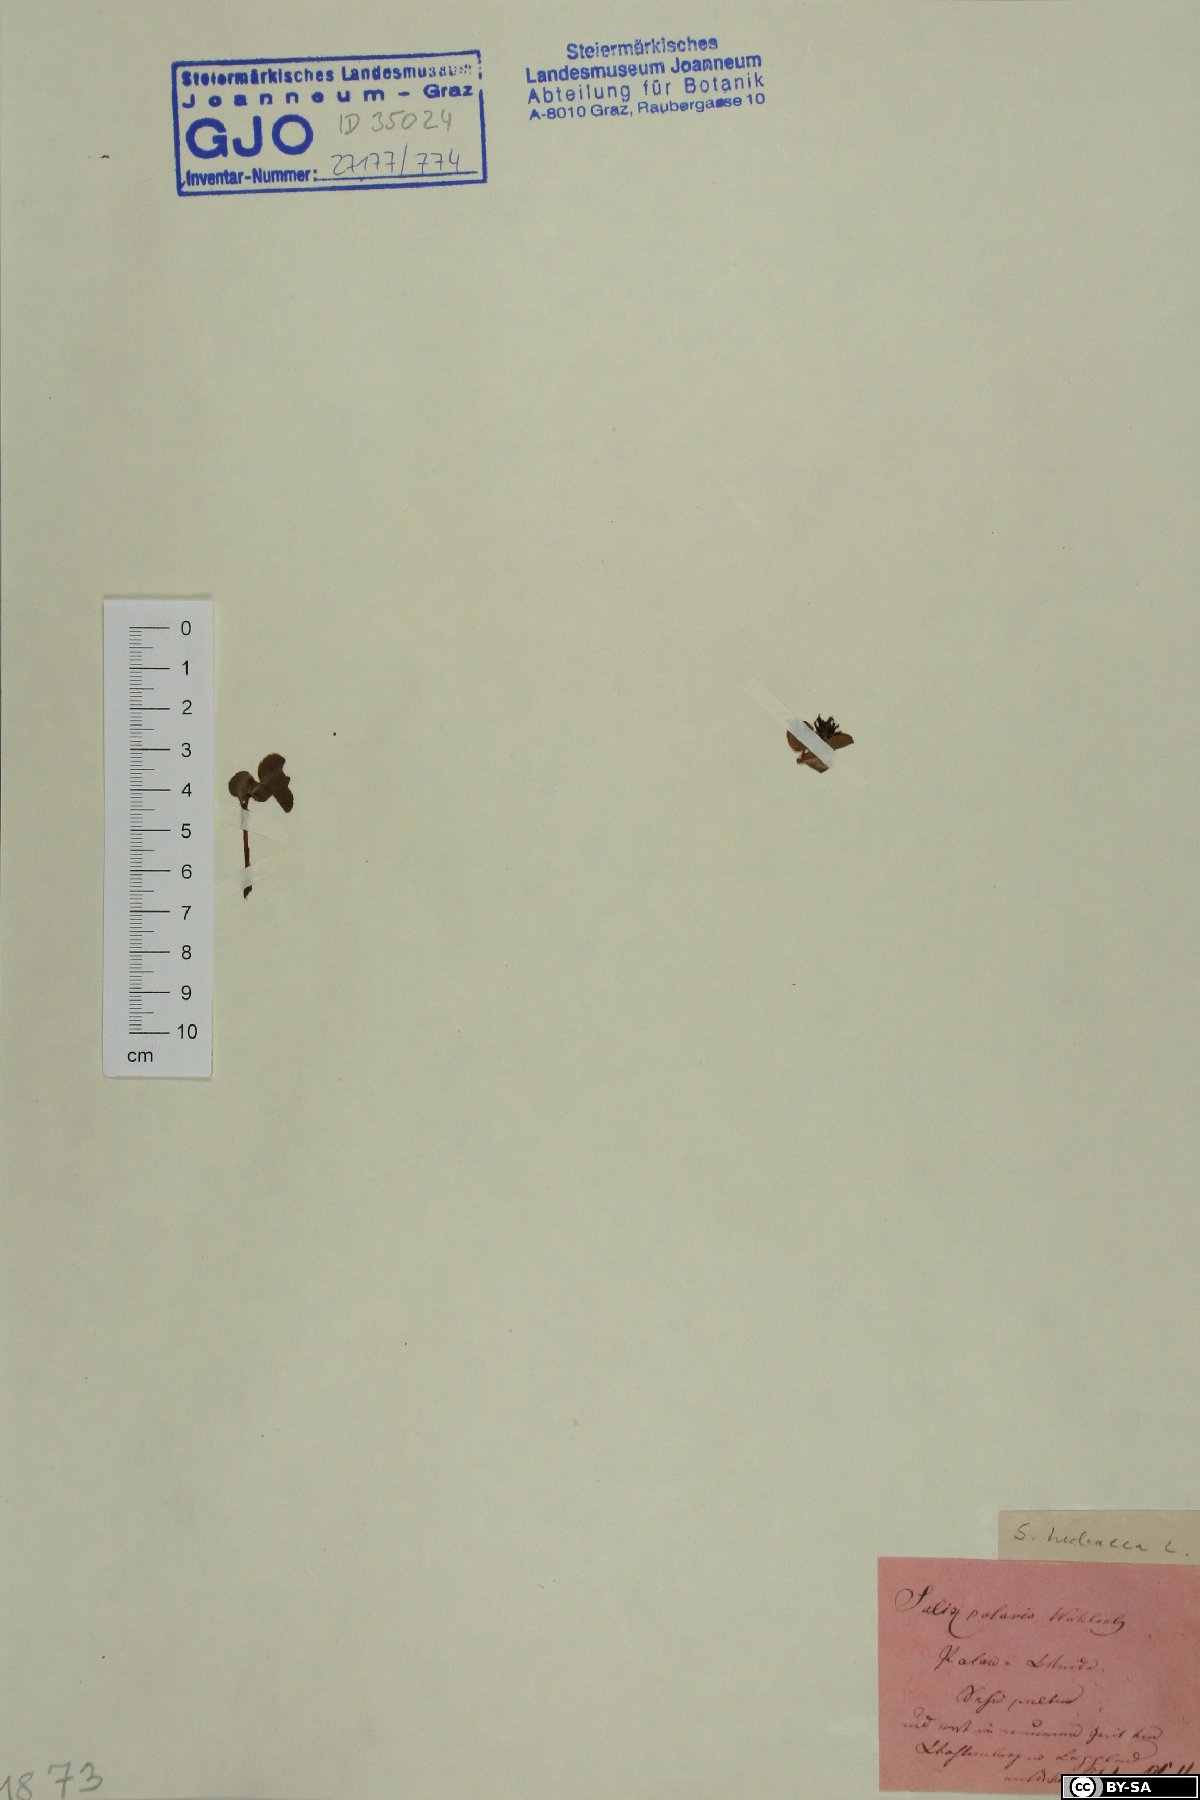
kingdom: Plantae
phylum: Tracheophyta
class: Magnoliopsida
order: Malpighiales
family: Salicaceae
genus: Salix
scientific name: Salix herbacea
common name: Dwarf willow
